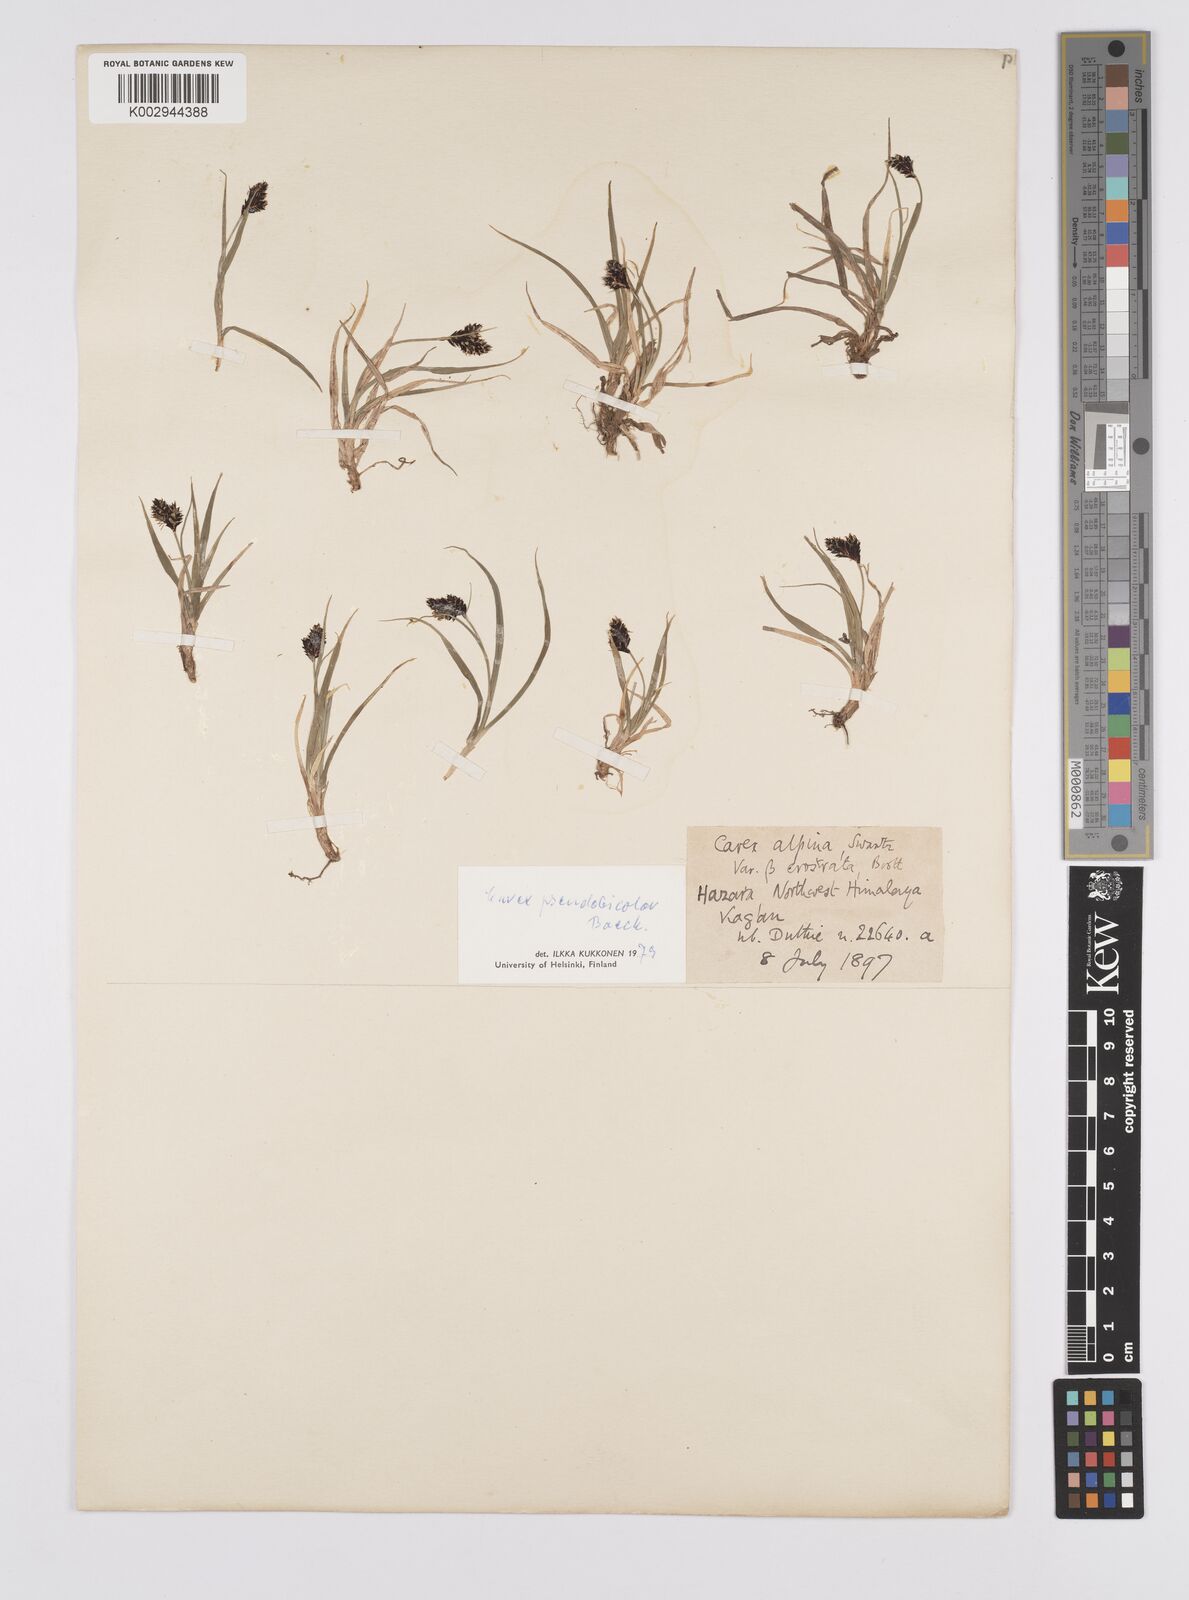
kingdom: Plantae
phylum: Tracheophyta
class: Liliopsida
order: Poales
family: Cyperaceae
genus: Carex
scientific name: Carex norvegica
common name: Close-headed alpine-sedge
